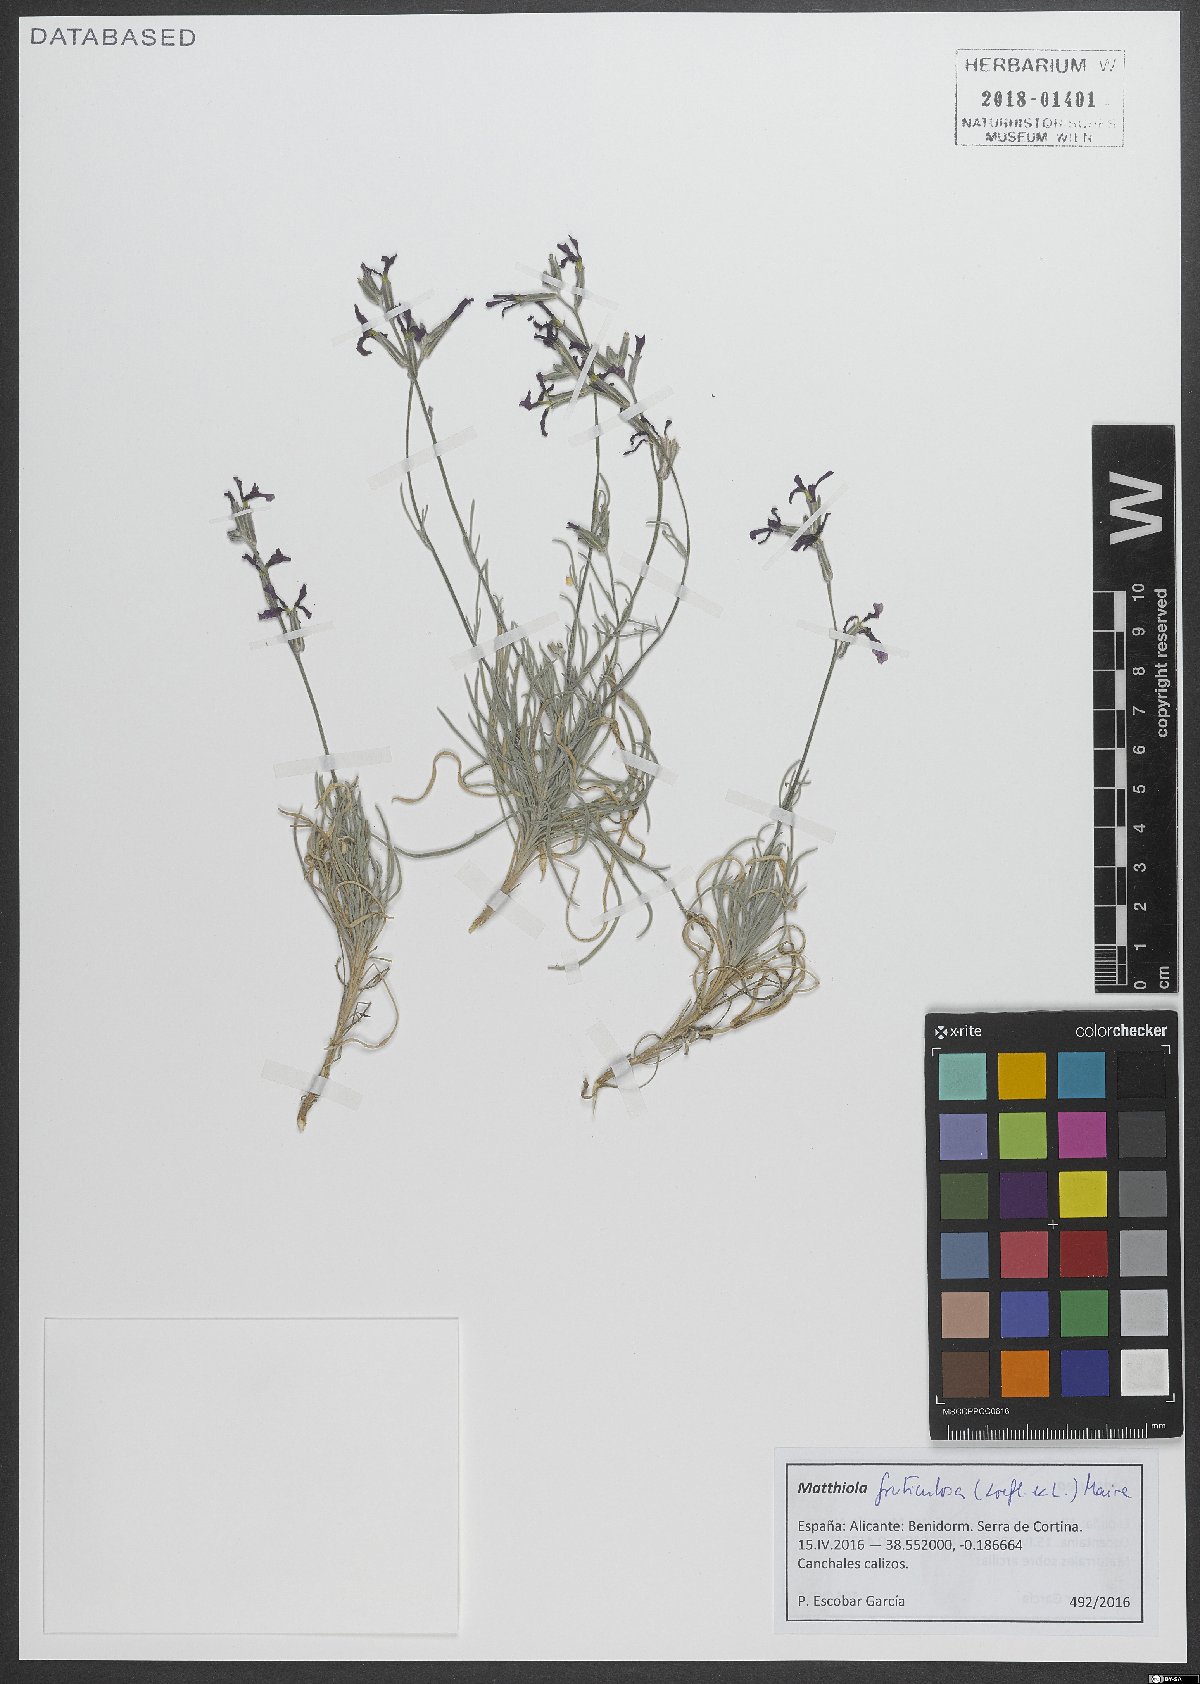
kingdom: Plantae
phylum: Tracheophyta
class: Magnoliopsida
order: Brassicales
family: Brassicaceae
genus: Matthiola
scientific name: Matthiola fruticulosa
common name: Sad stock
